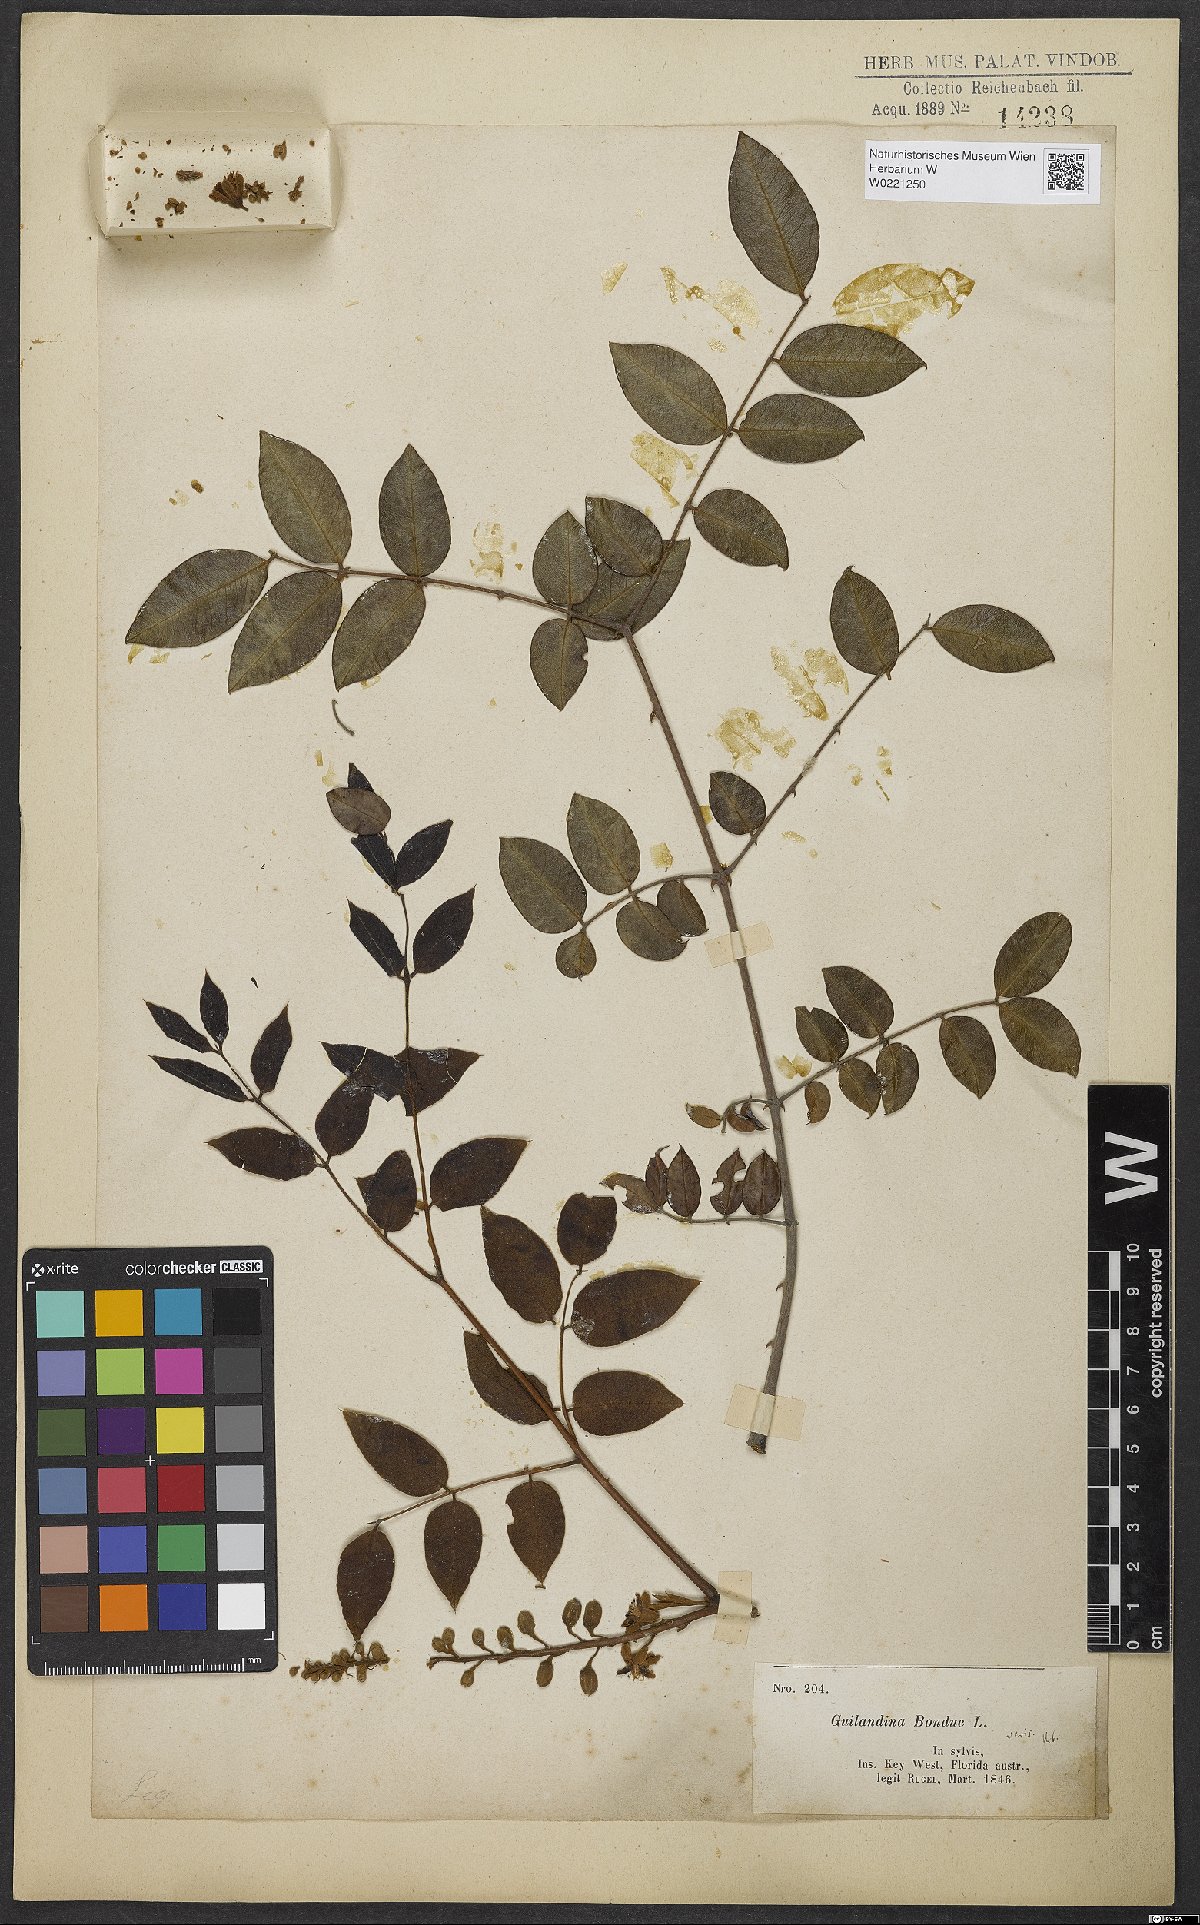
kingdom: Plantae
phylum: Tracheophyta
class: Magnoliopsida
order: Fabales
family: Fabaceae
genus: Guilandina
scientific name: Guilandina bonduc
